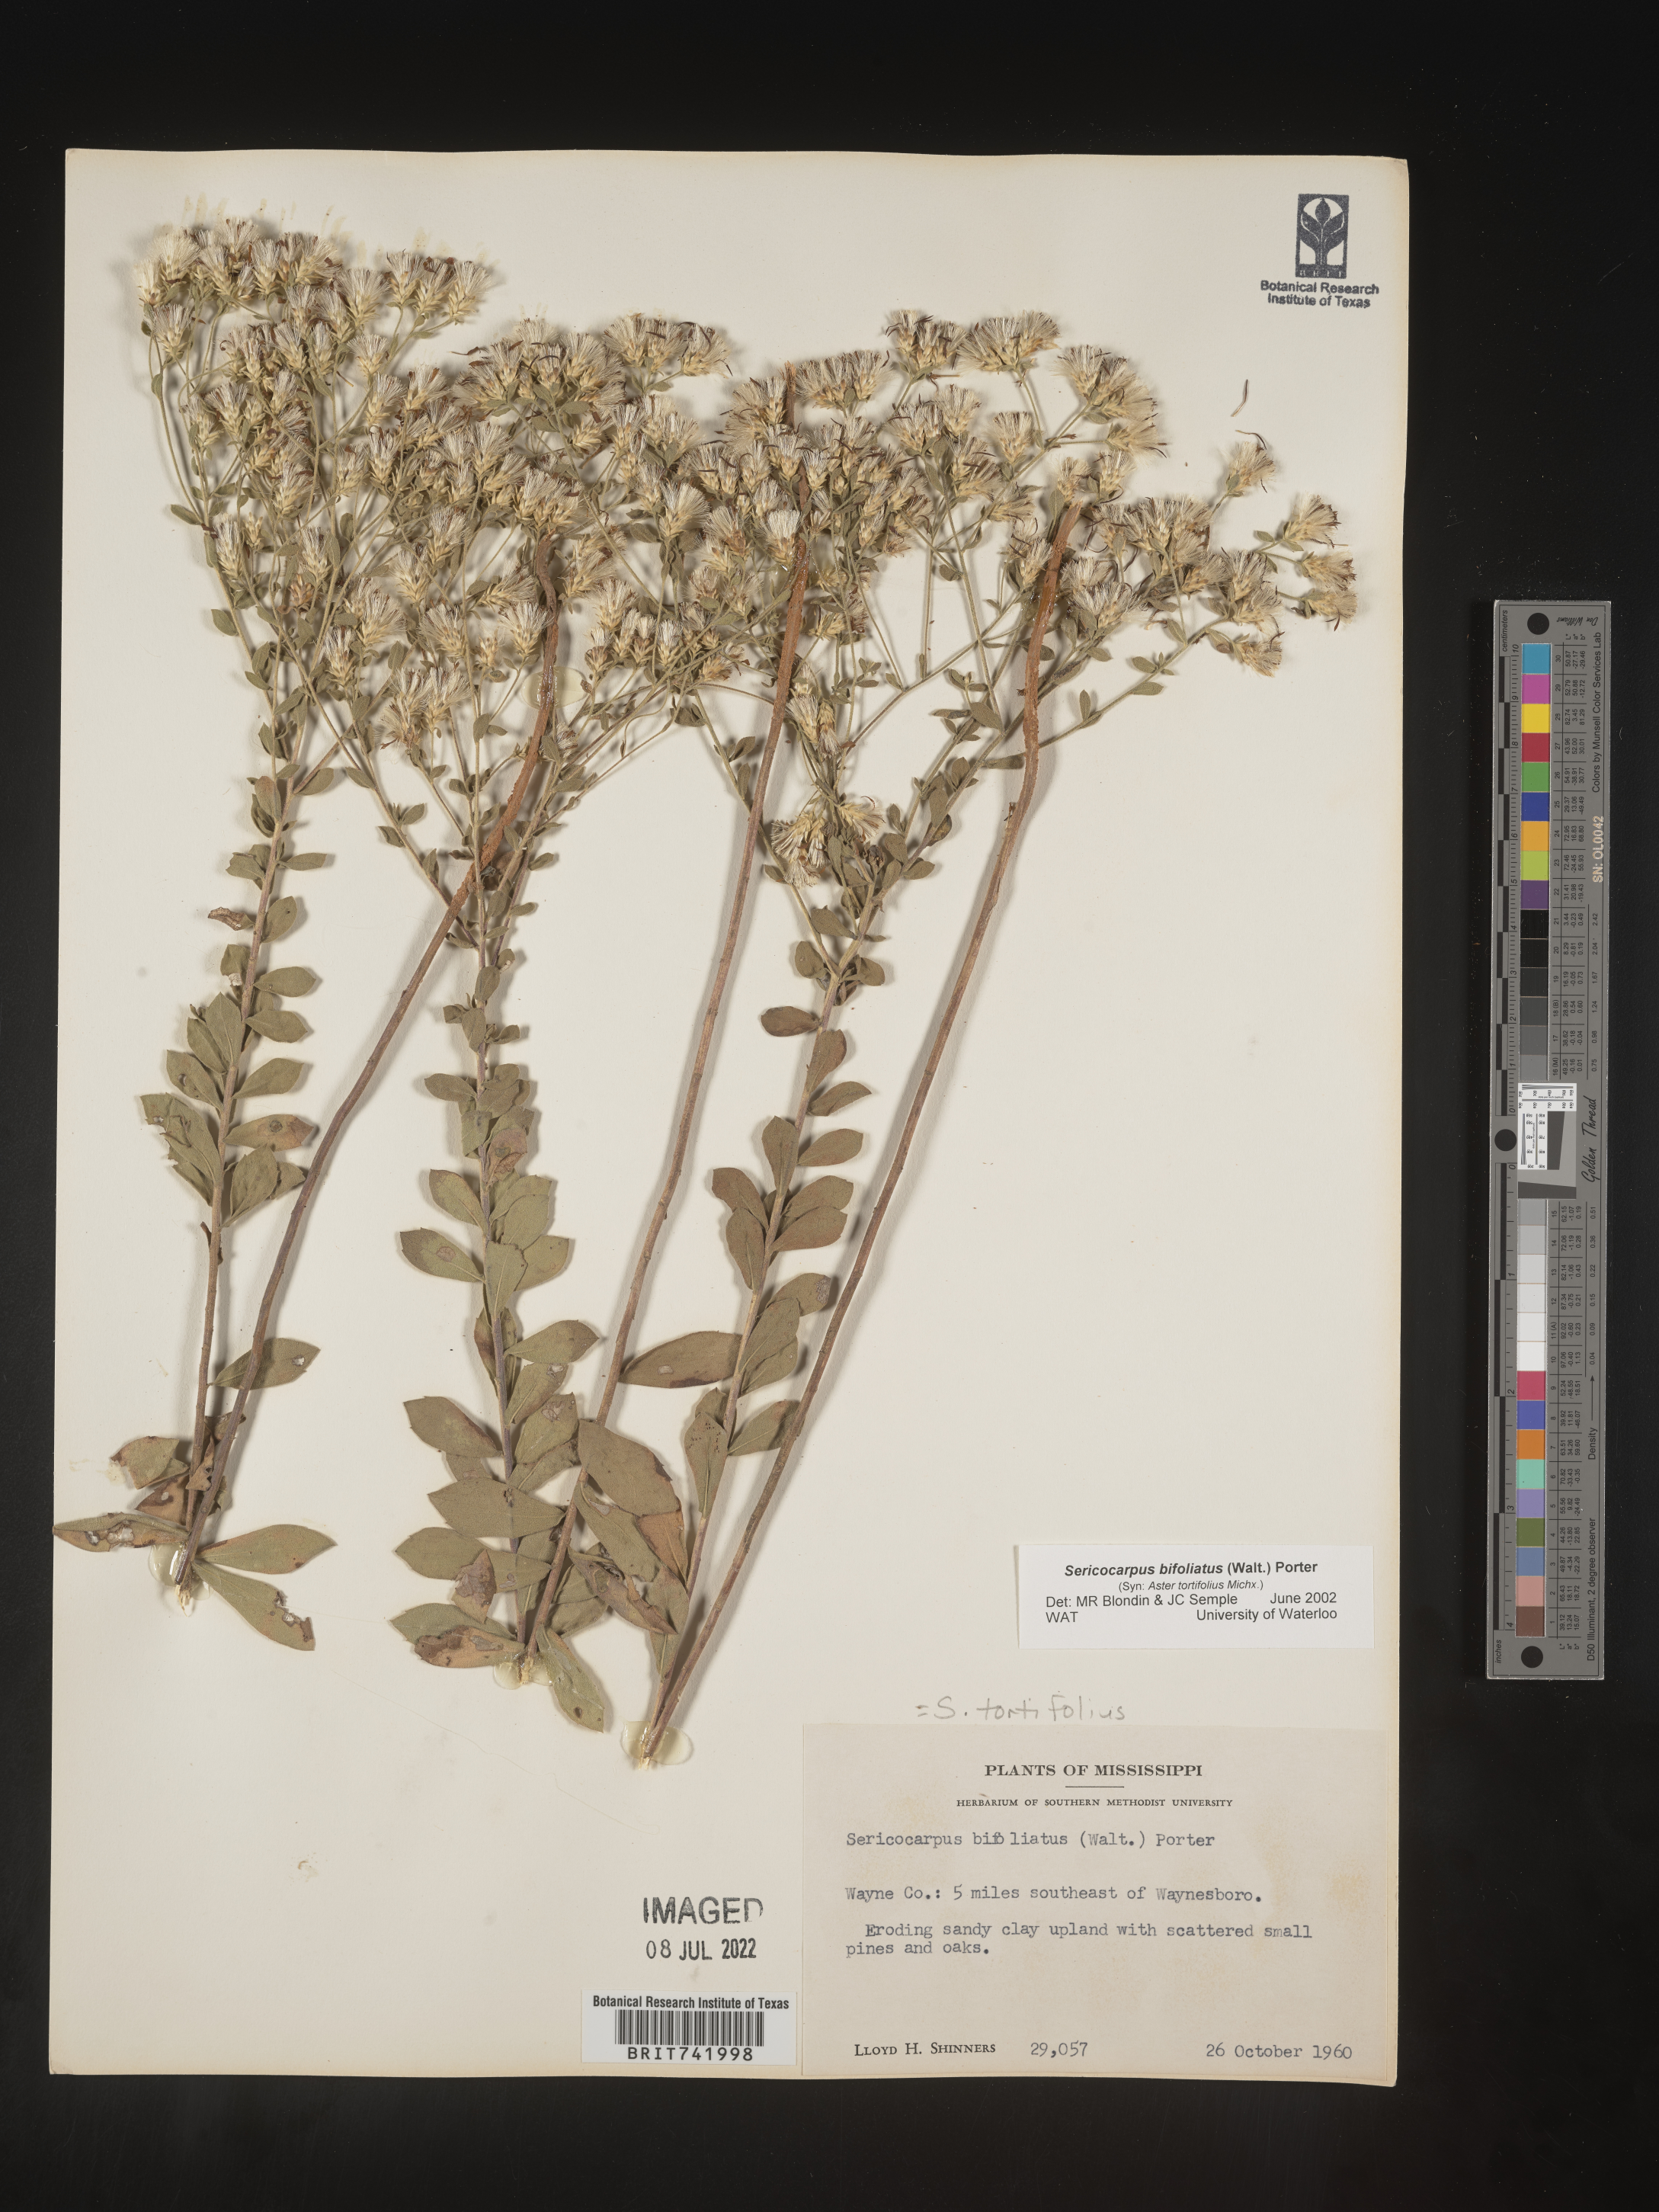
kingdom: Plantae
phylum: Tracheophyta
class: Magnoliopsida
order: Asterales
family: Asteraceae
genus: Sericocarpus
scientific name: Sericocarpus tortifolius
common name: Dixie aster
